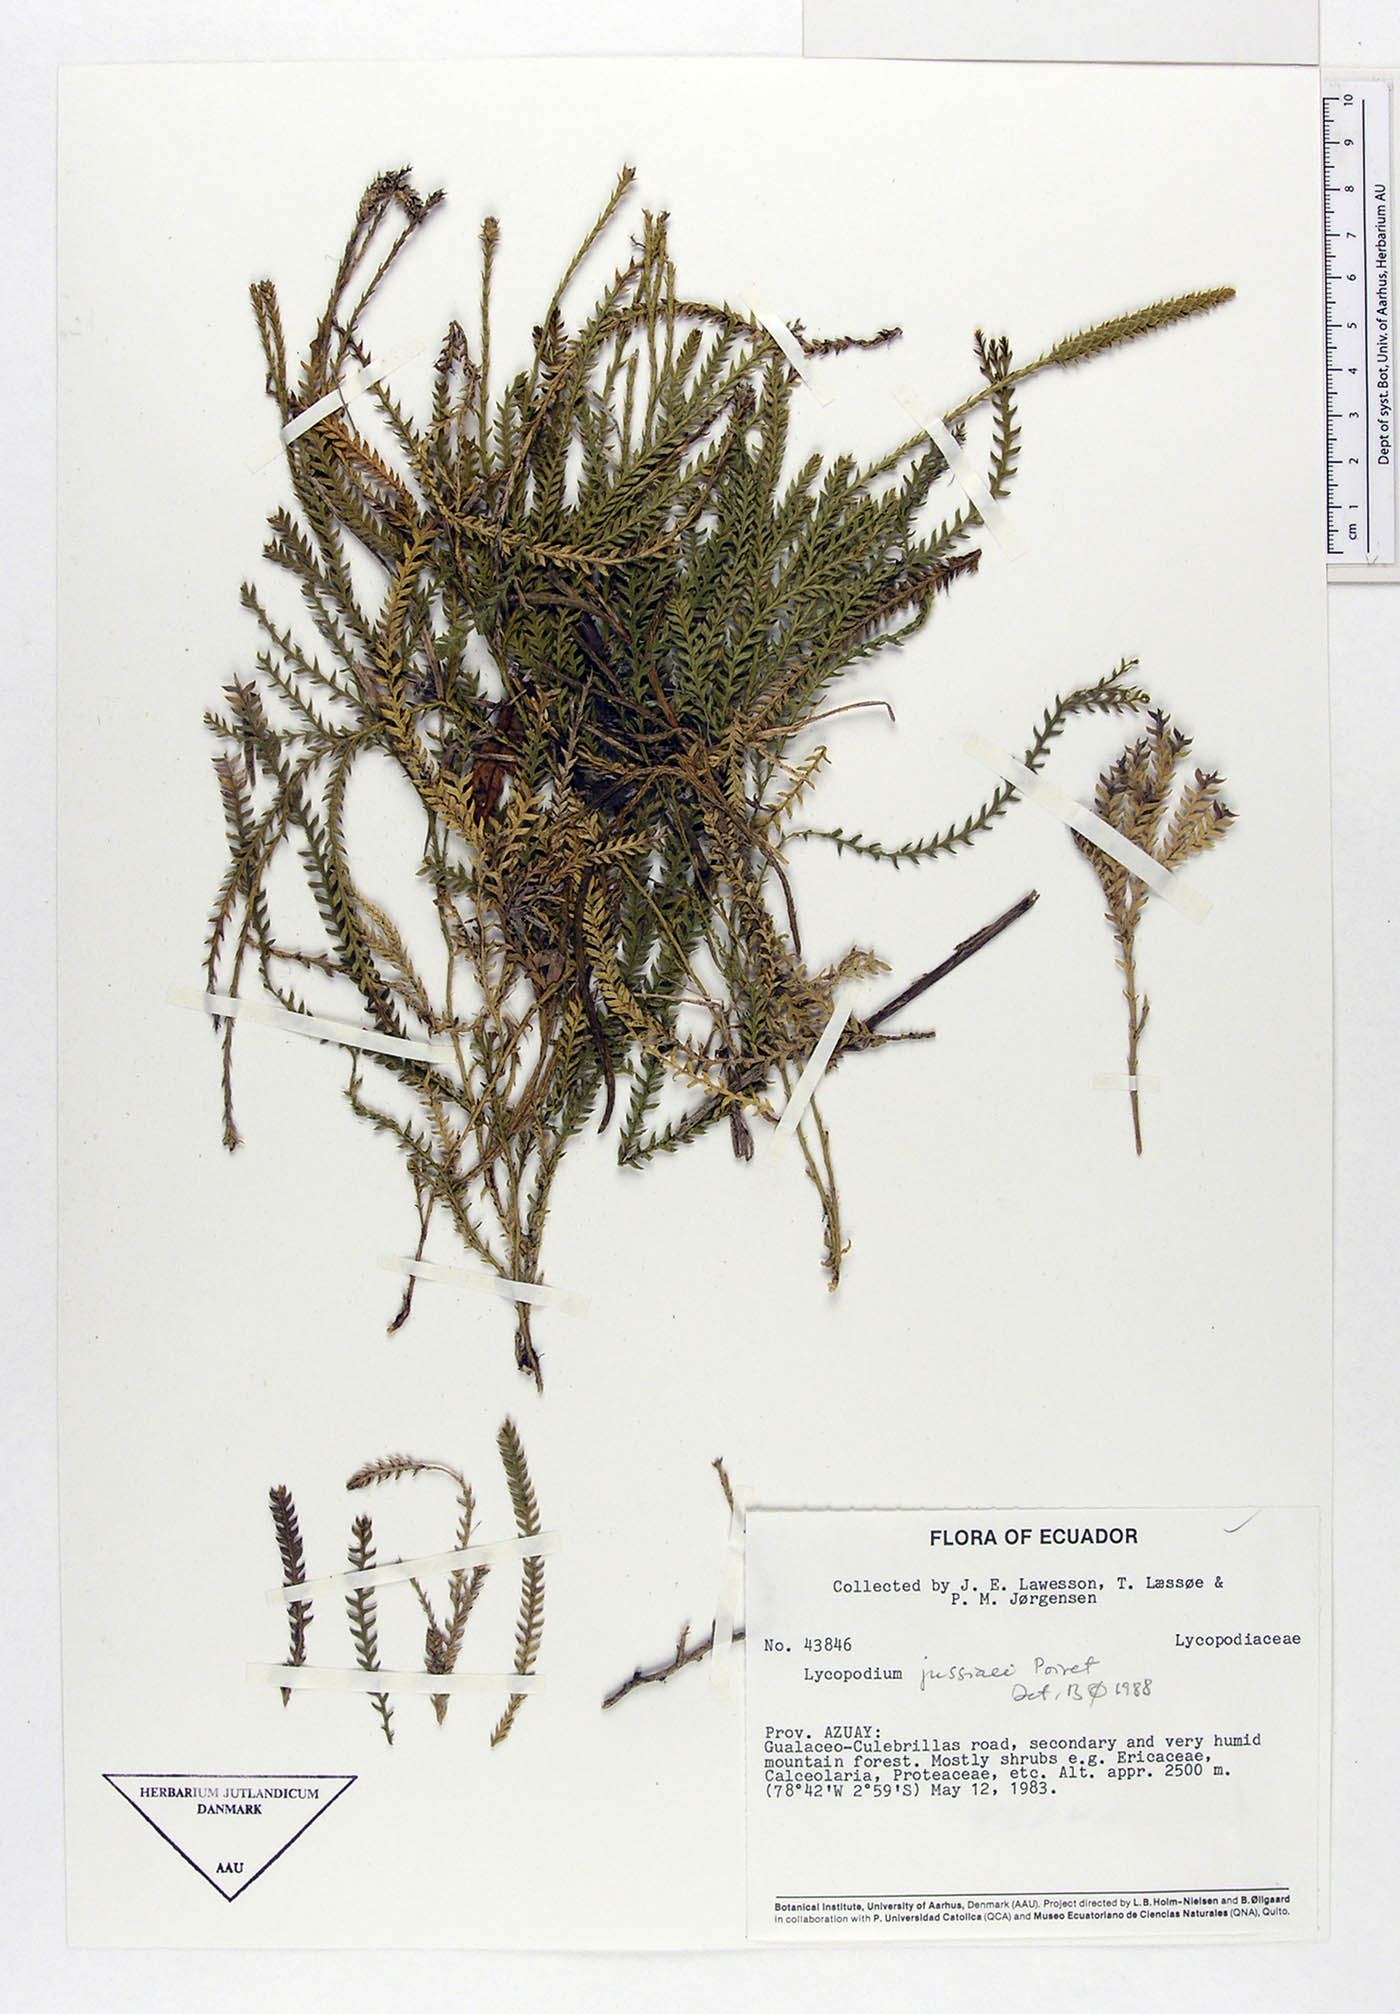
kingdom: Plantae
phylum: Tracheophyta
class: Lycopodiopsida
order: Lycopodiales
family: Lycopodiaceae
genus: Diphasium
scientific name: Diphasium jussiaei
